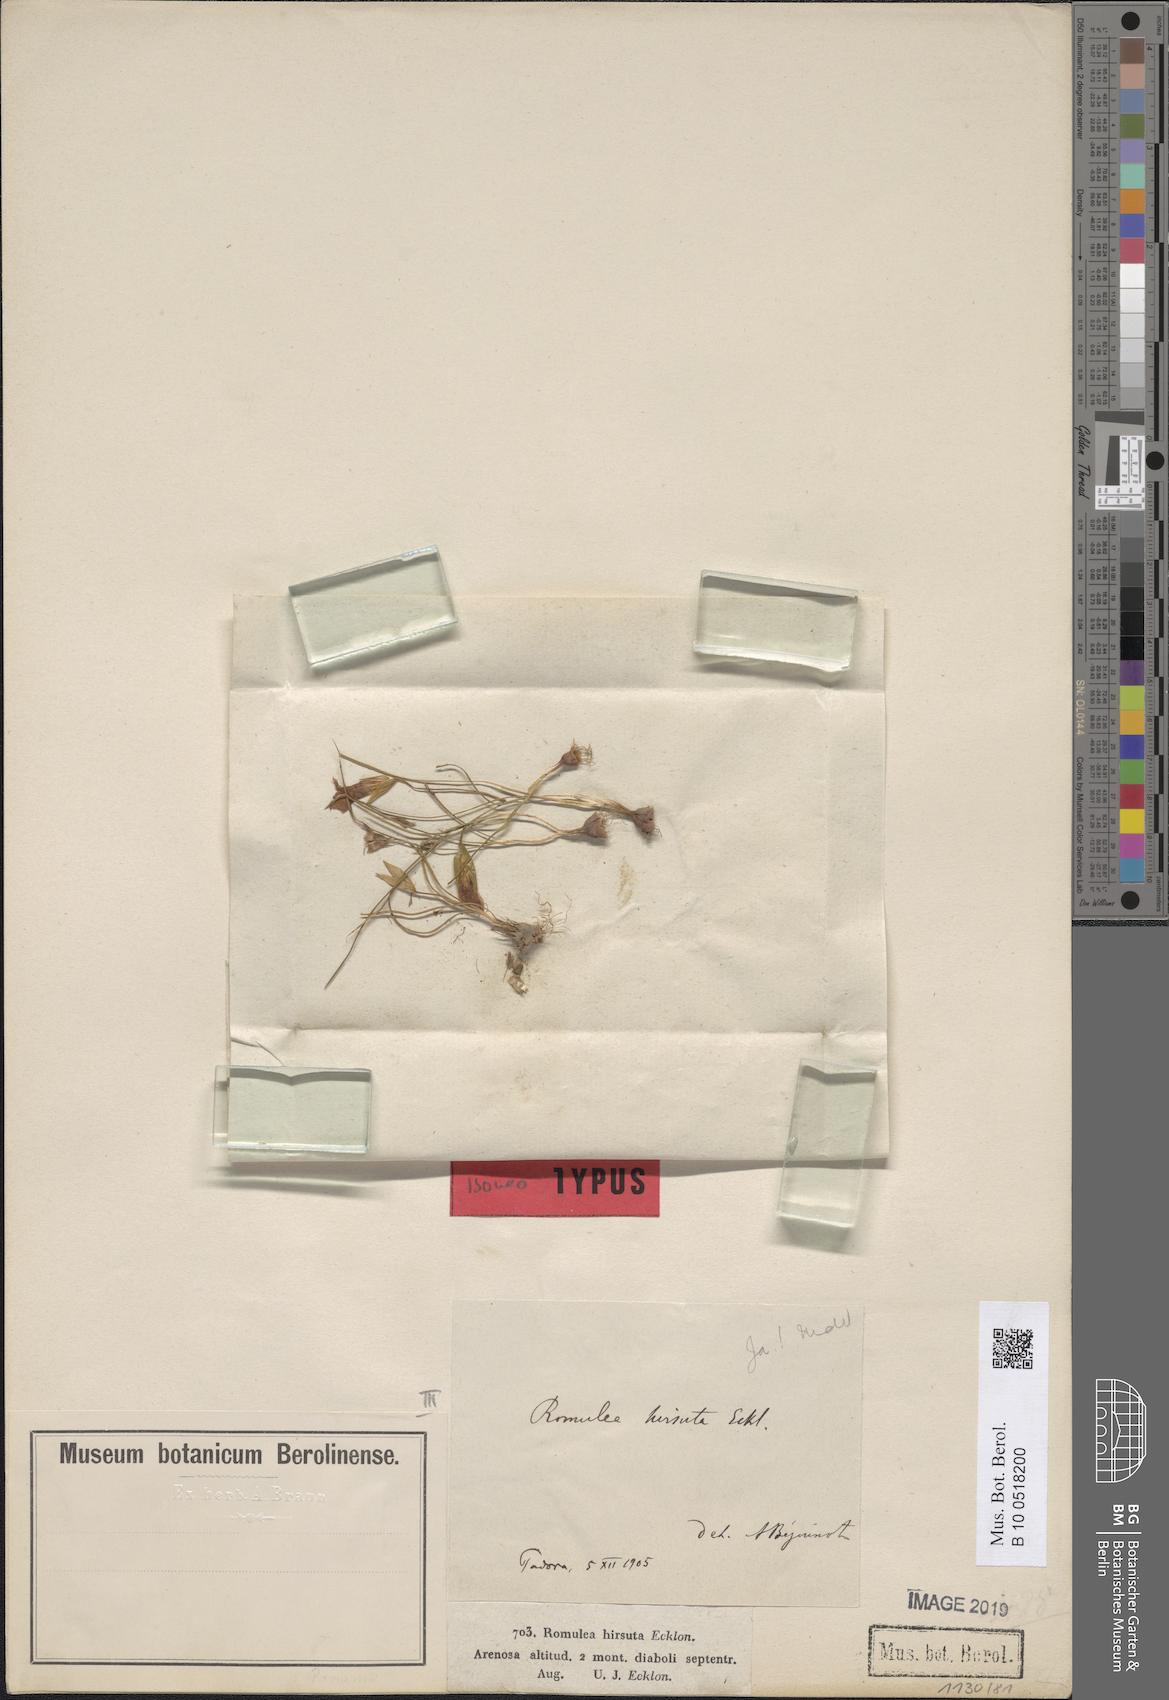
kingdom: Plantae
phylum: Tracheophyta
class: Liliopsida
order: Asparagales
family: Iridaceae
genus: Romulea
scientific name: Romulea hirsuta
